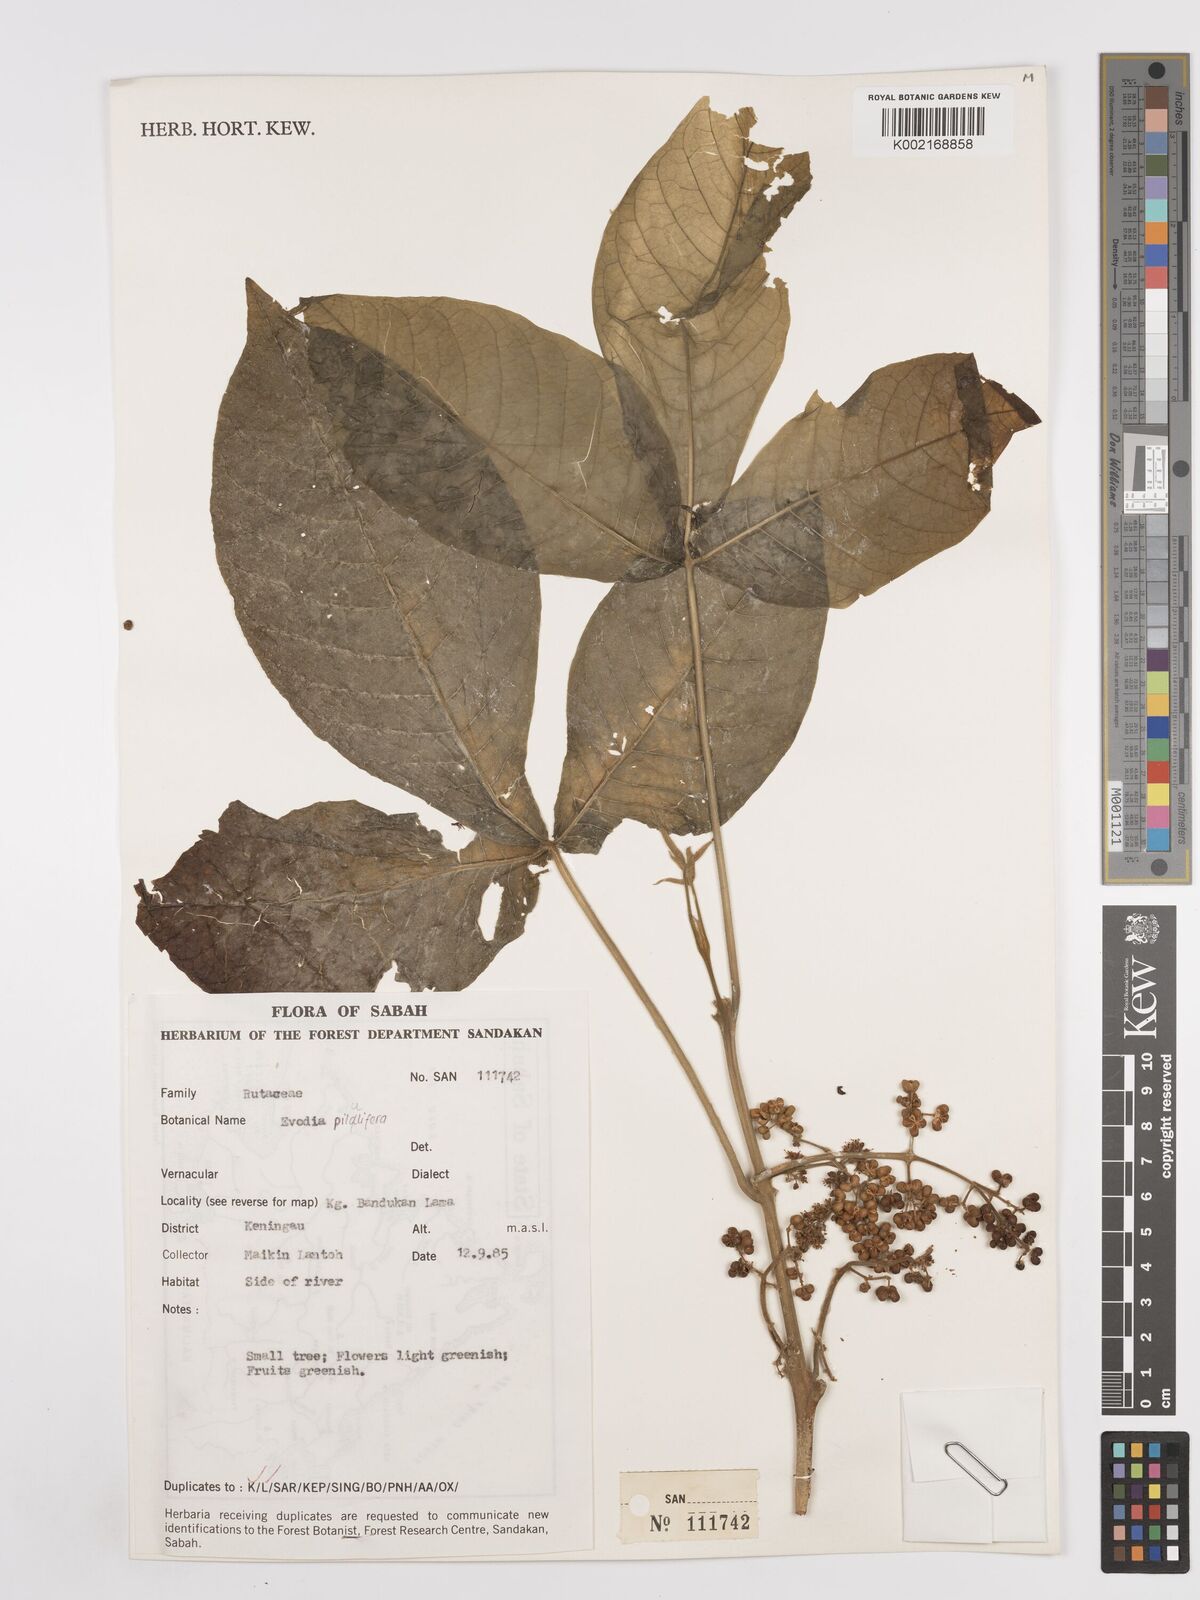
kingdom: Plantae
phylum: Tracheophyta
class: Magnoliopsida
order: Sapindales
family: Rutaceae
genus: Melicope
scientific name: Melicope accedens
